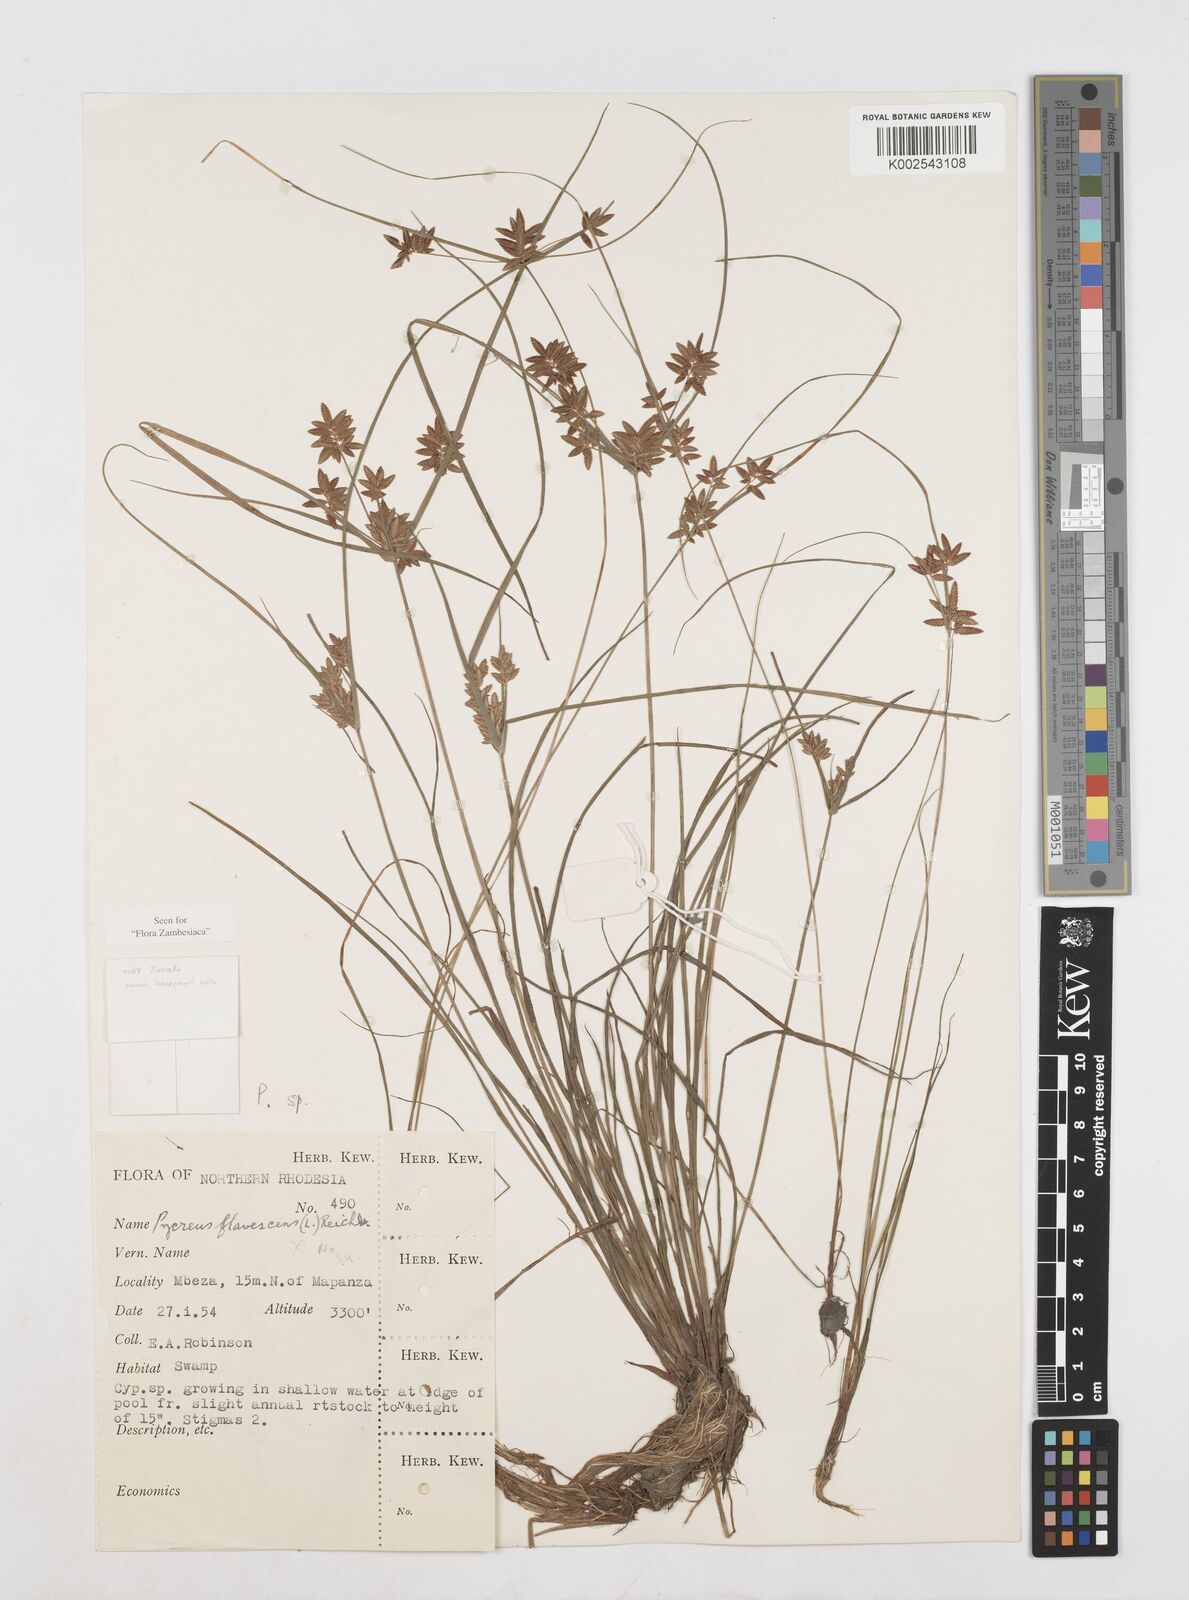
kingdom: Plantae
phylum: Tracheophyta
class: Liliopsida
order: Poales
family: Cyperaceae
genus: Cyperus
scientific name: Cyperus flavescens
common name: Yellow galingale
